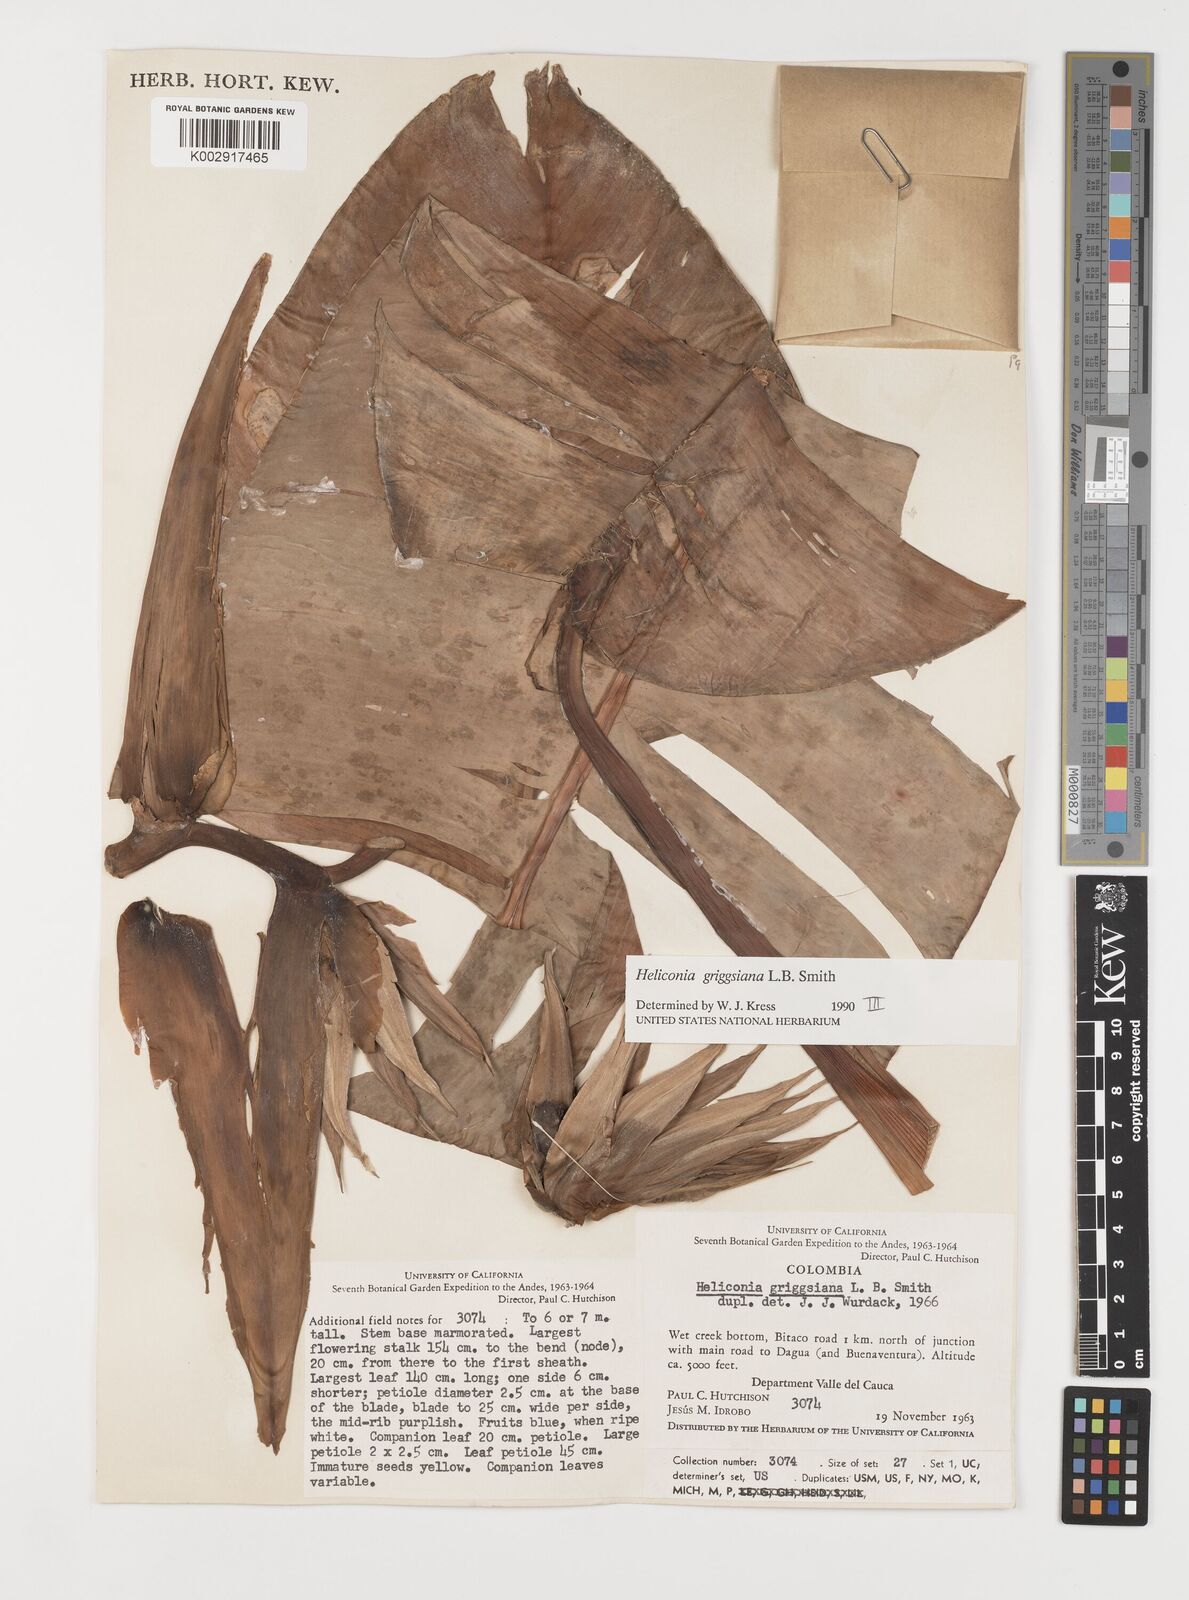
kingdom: Plantae
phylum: Tracheophyta
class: Liliopsida
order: Zingiberales
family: Heliconiaceae
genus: Heliconia
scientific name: Heliconia griggsiana
